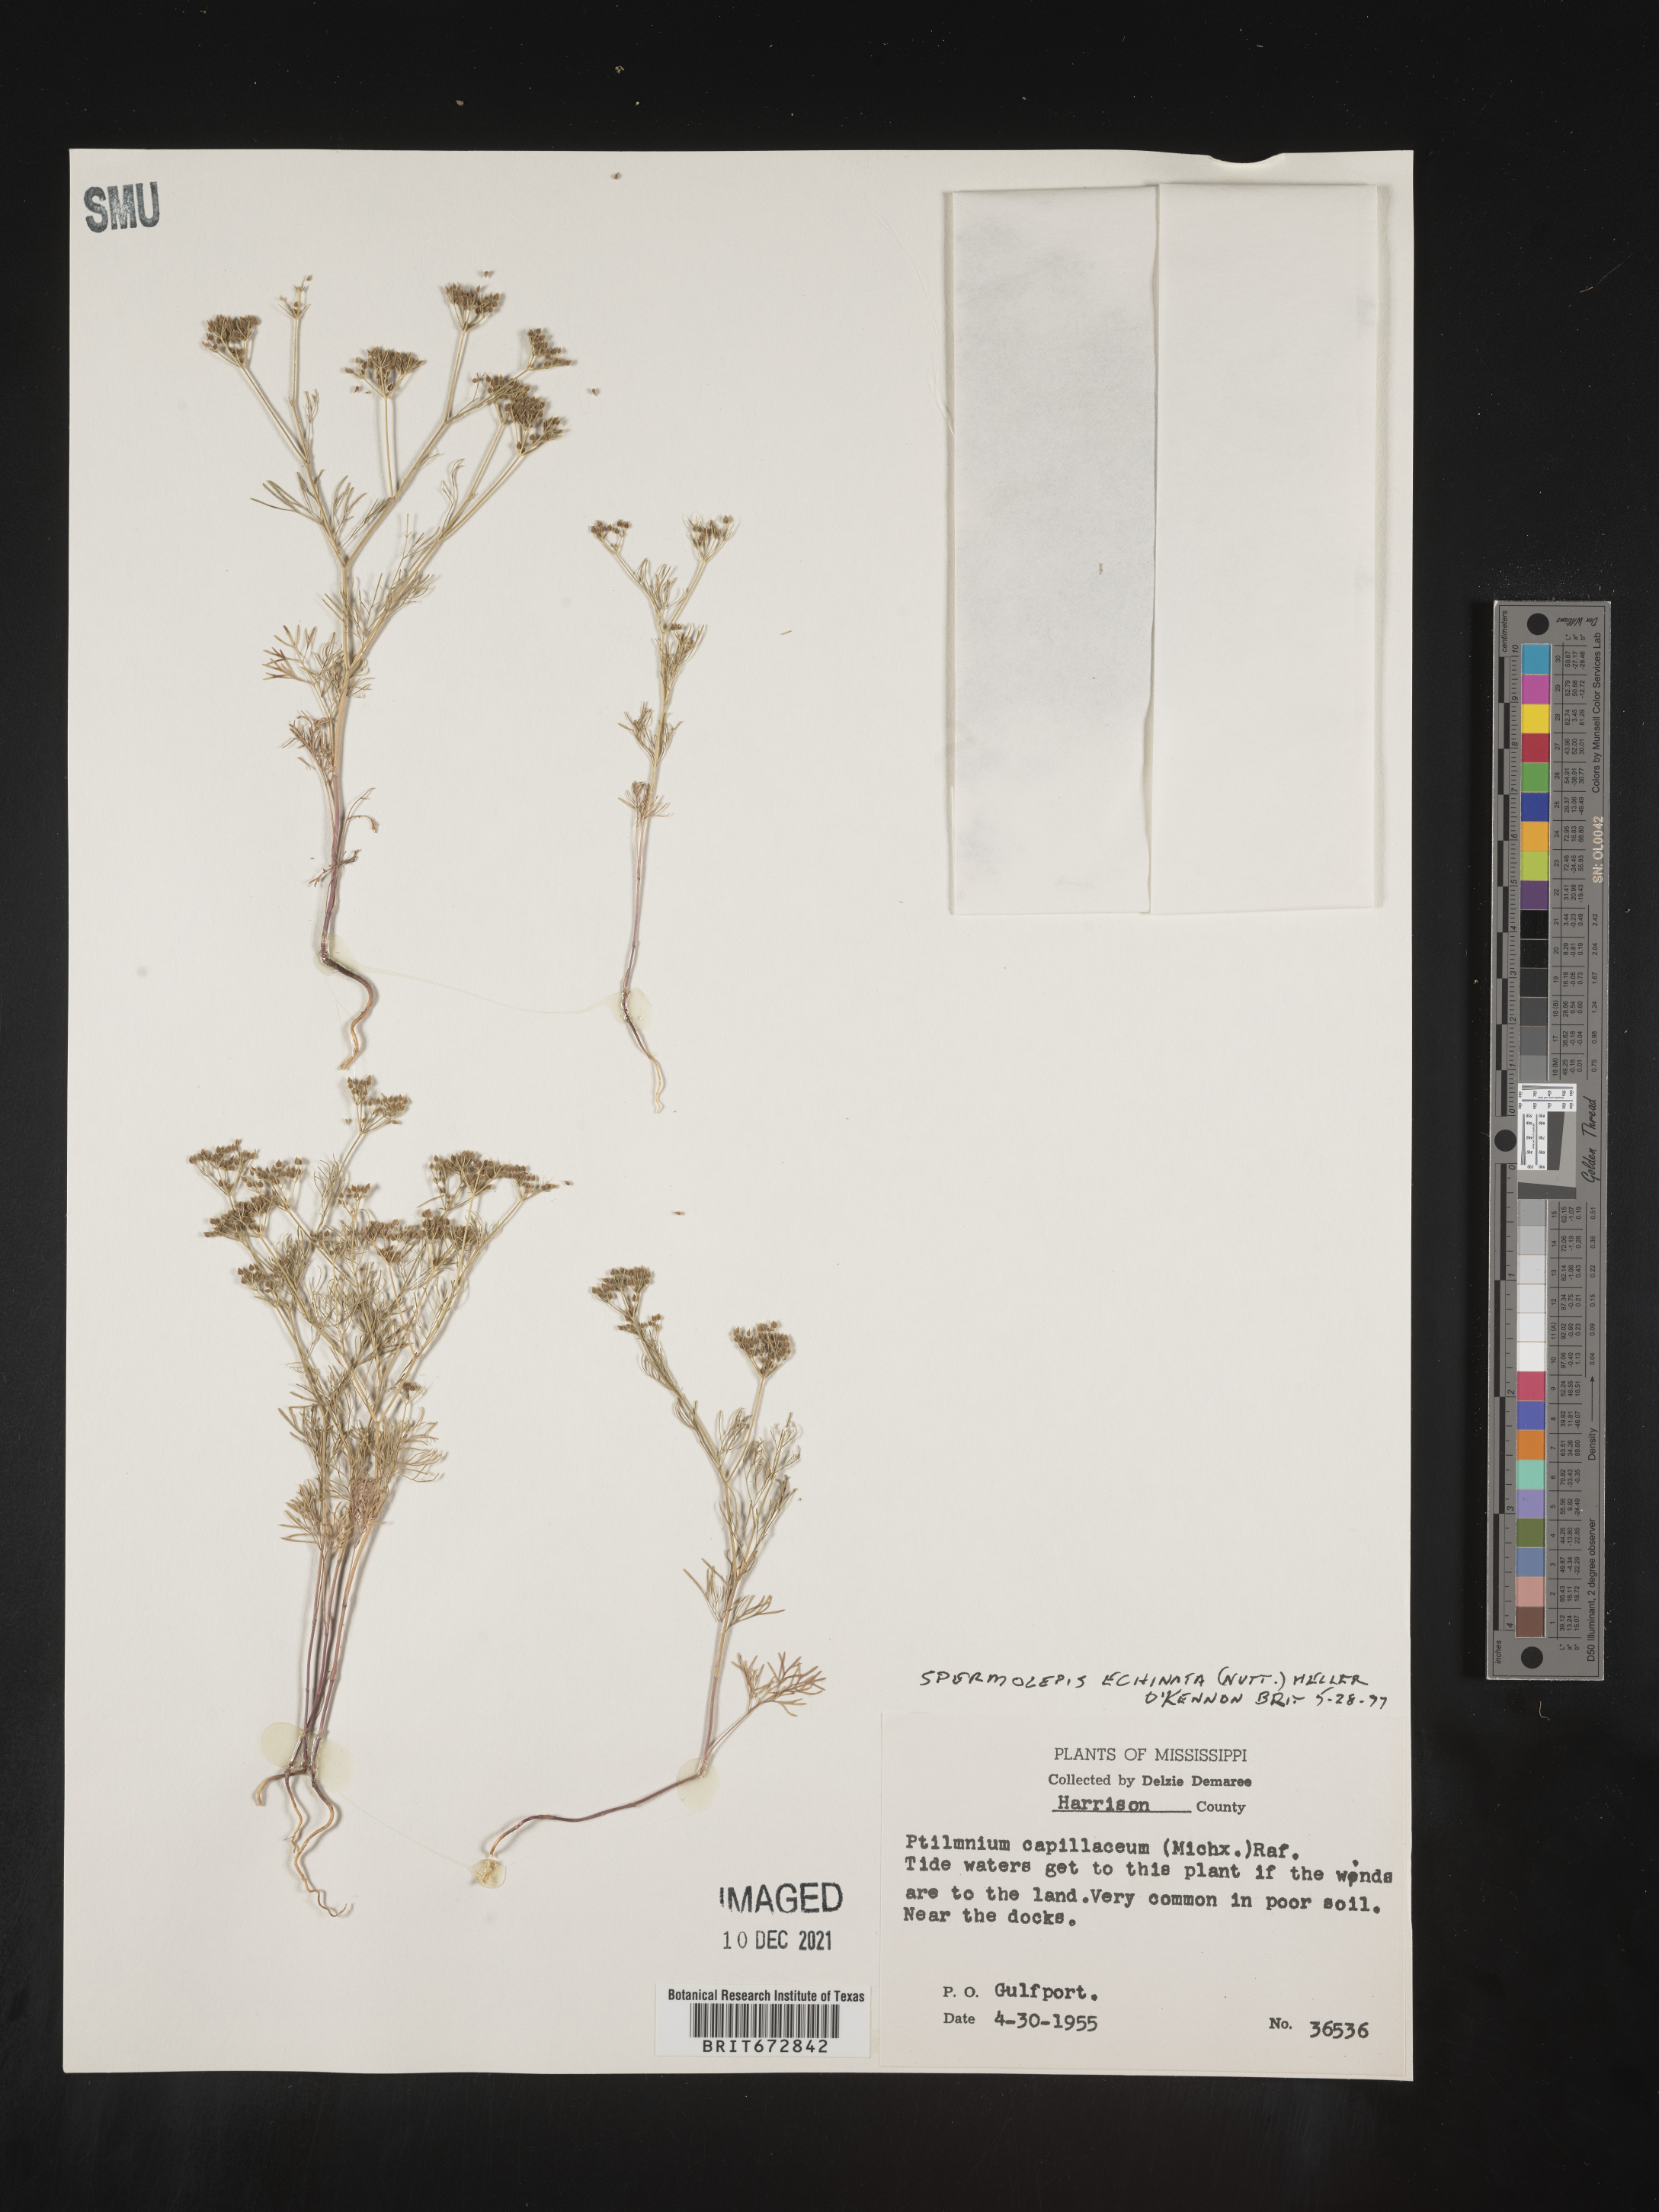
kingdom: Plantae
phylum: Tracheophyta
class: Magnoliopsida
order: Apiales
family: Apiaceae
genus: Spermolepis
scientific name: Spermolepis echinata
